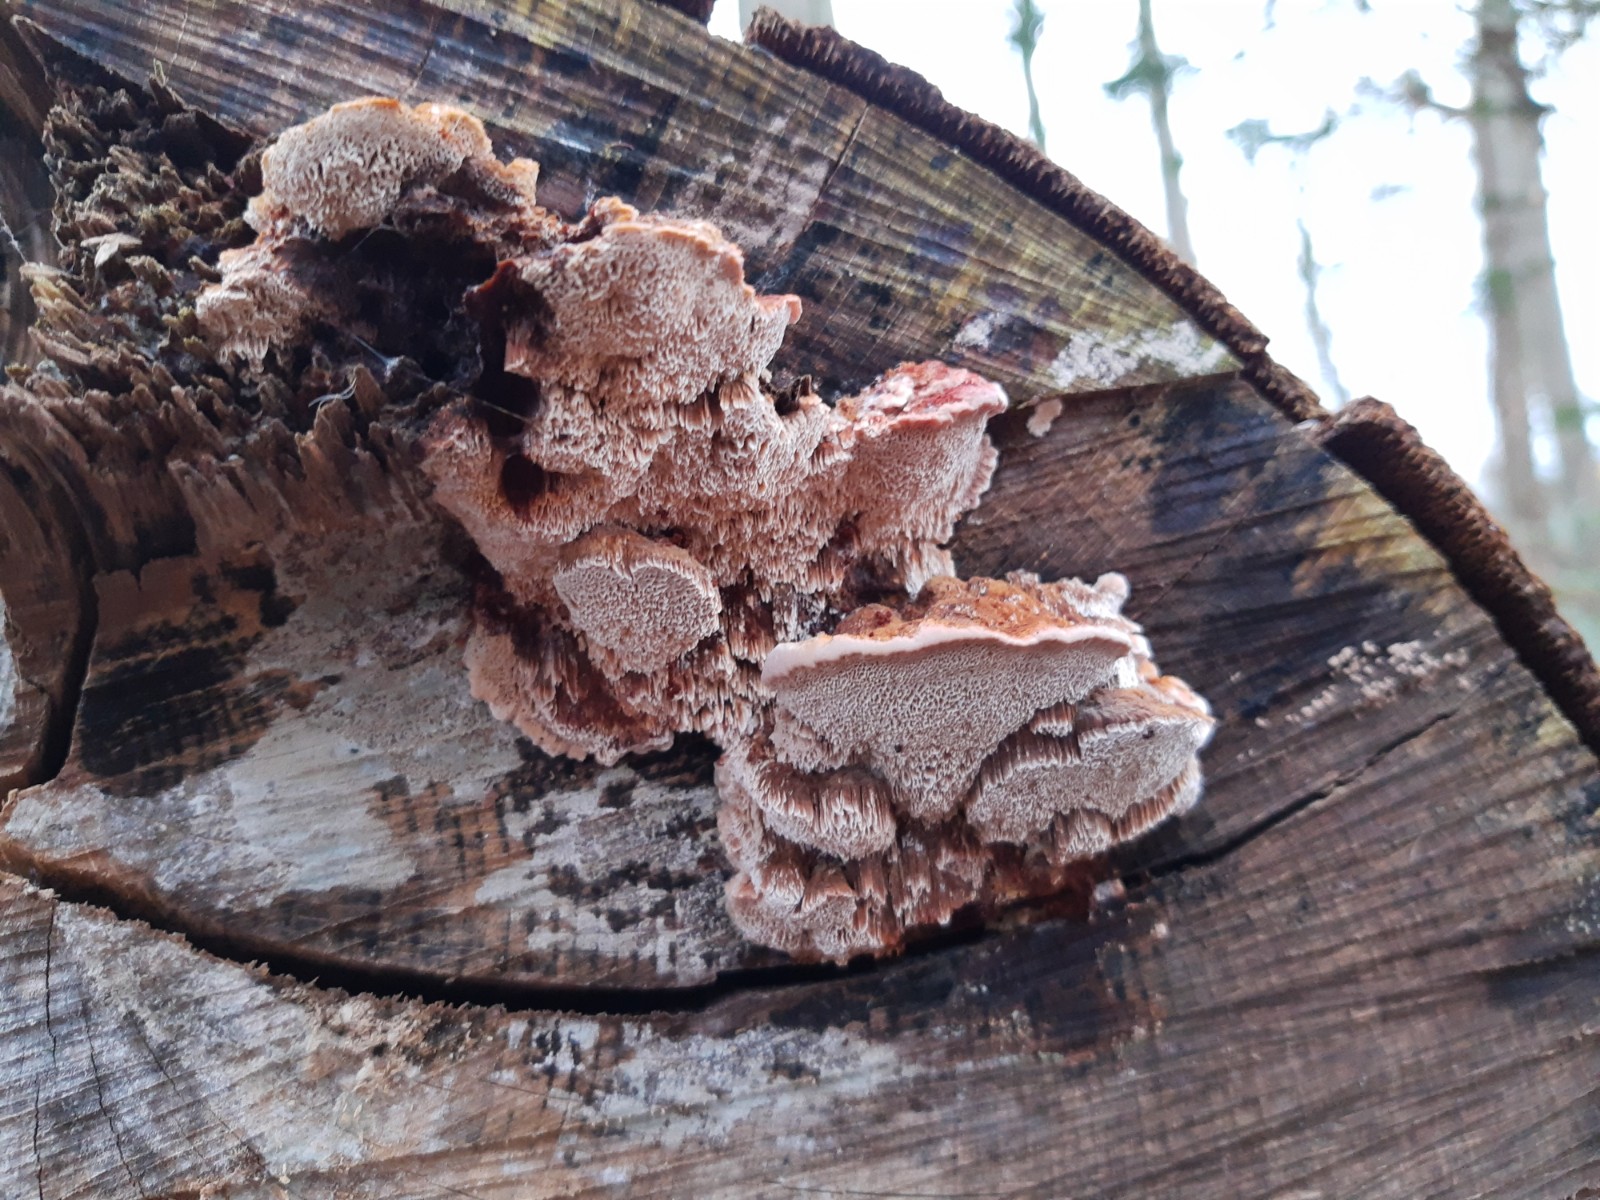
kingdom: Fungi
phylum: Basidiomycota
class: Agaricomycetes
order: Hymenochaetales
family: Hymenochaetaceae
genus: Mensularia
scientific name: Mensularia nodulosa
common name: bøge-spejlporesvamp
